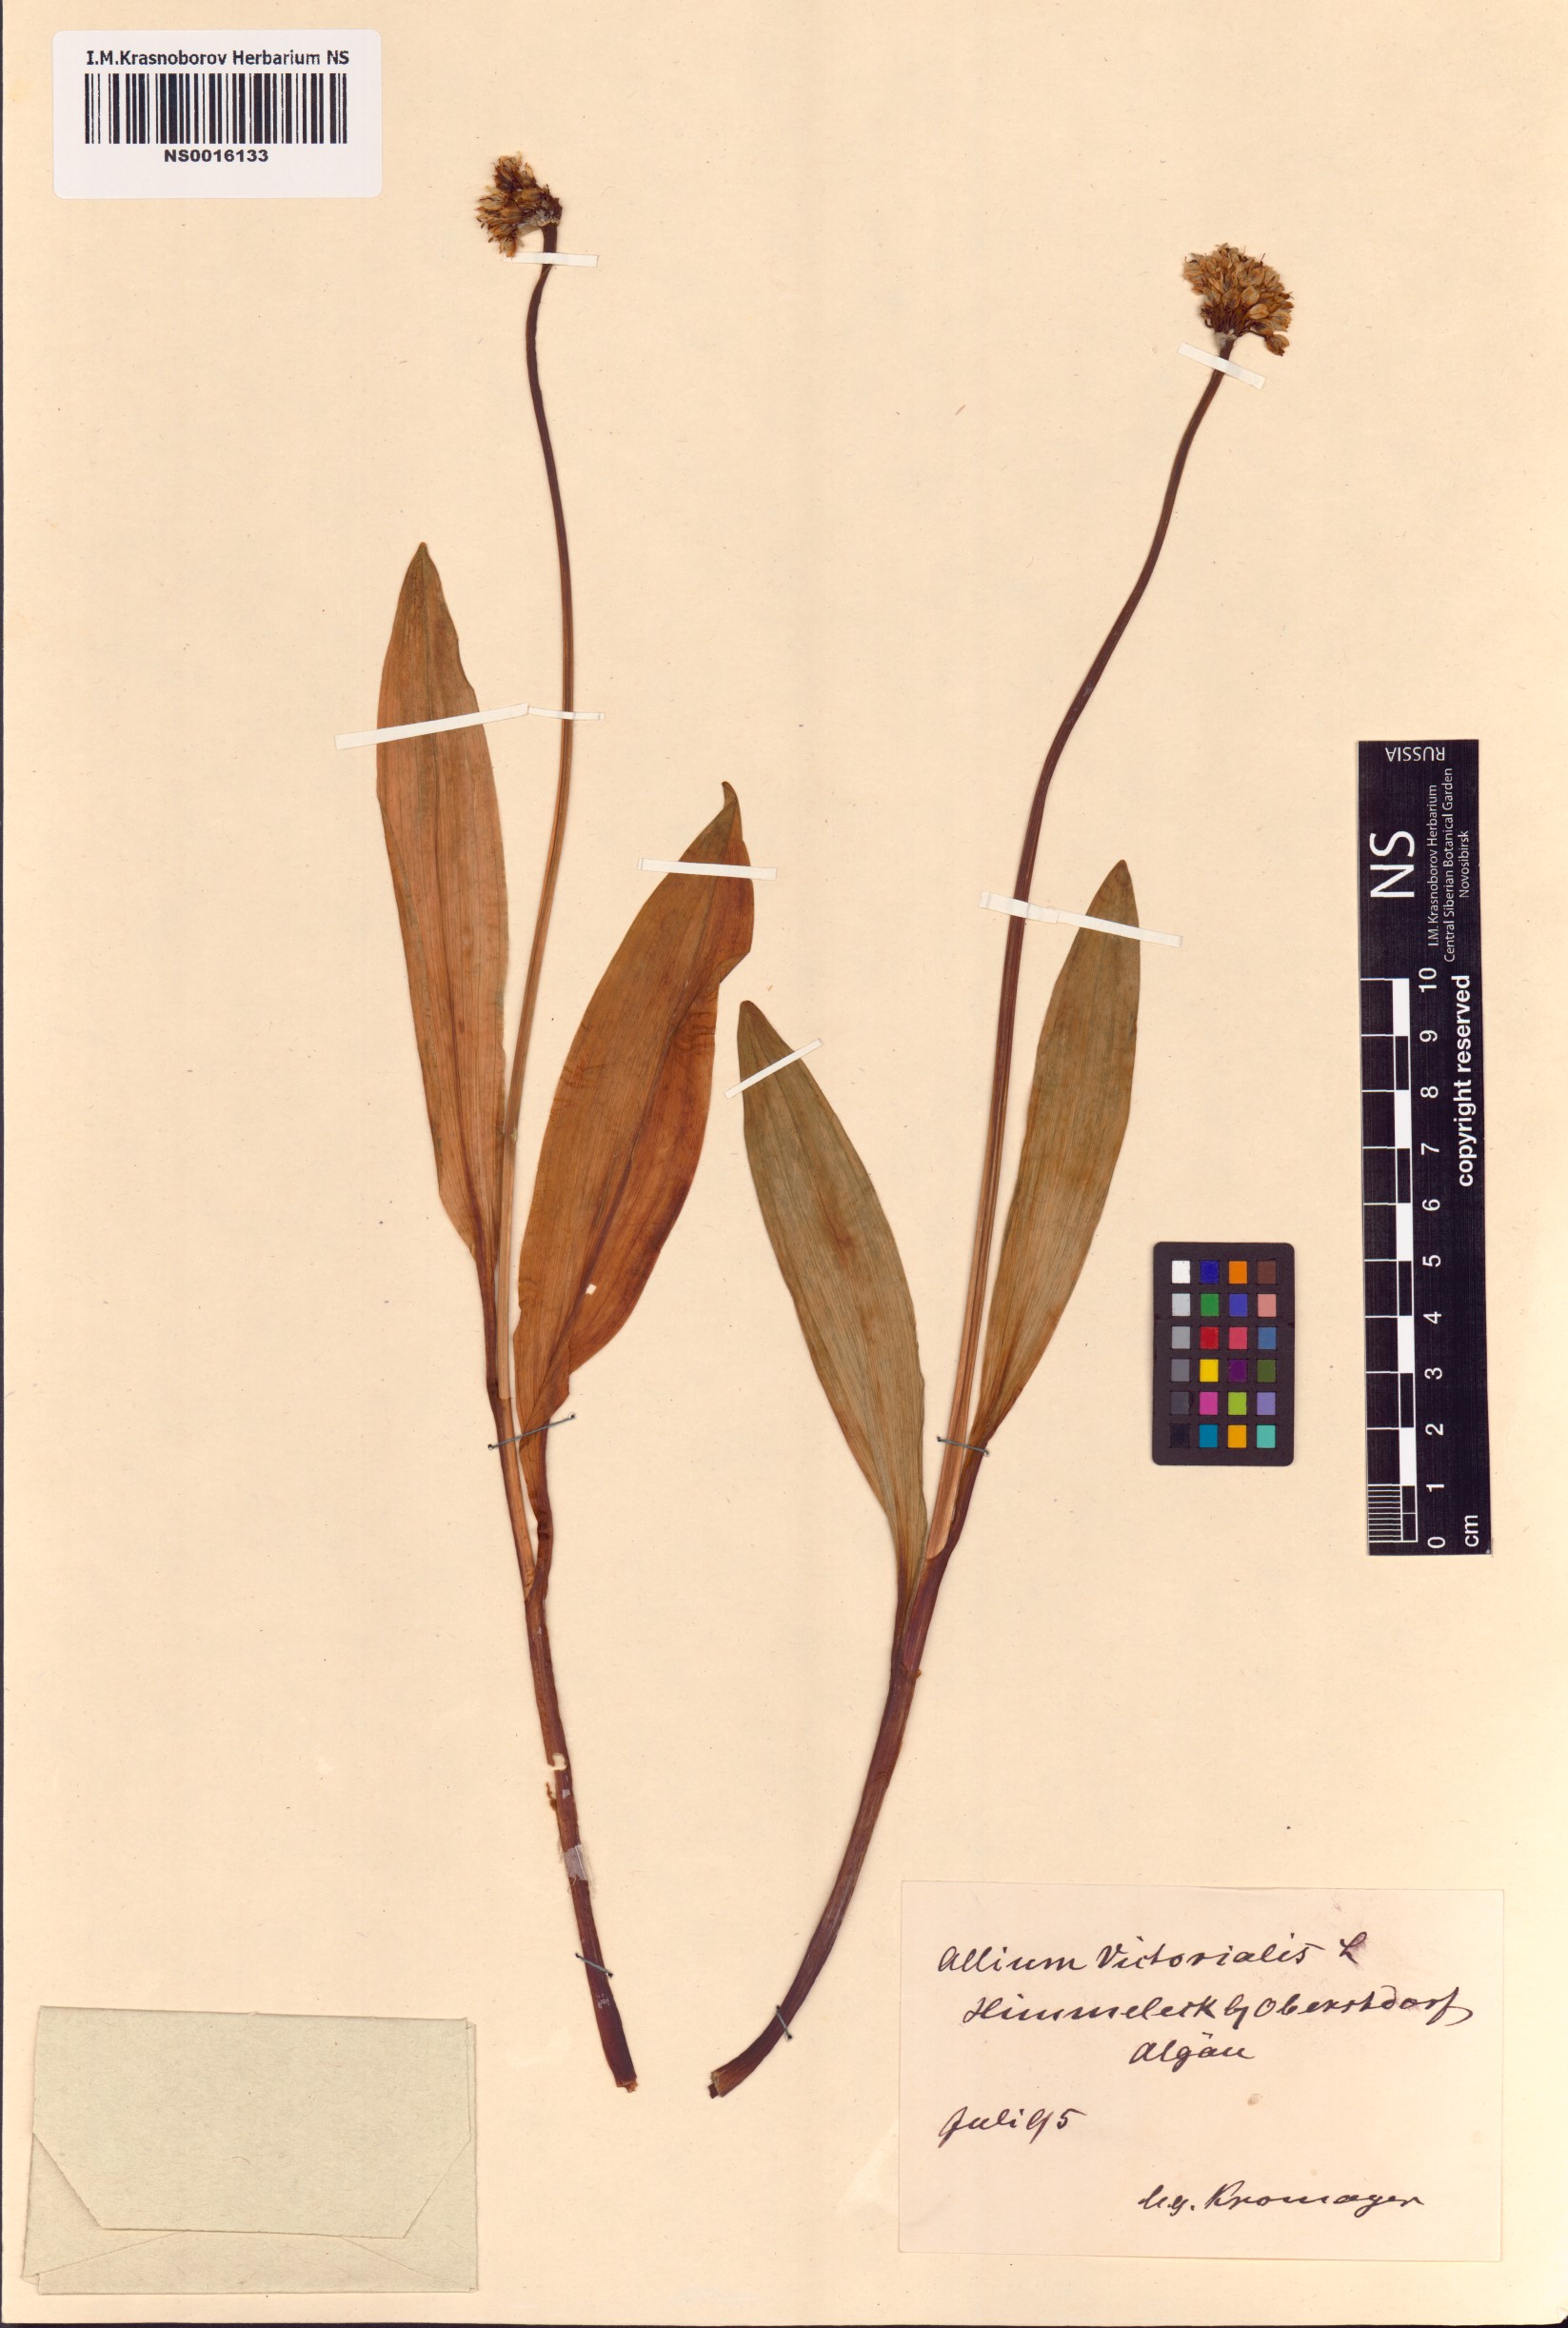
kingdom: Plantae
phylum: Tracheophyta
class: Liliopsida
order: Asparagales
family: Amaryllidaceae
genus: Allium
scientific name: Allium victorialis
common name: Alpine leek
